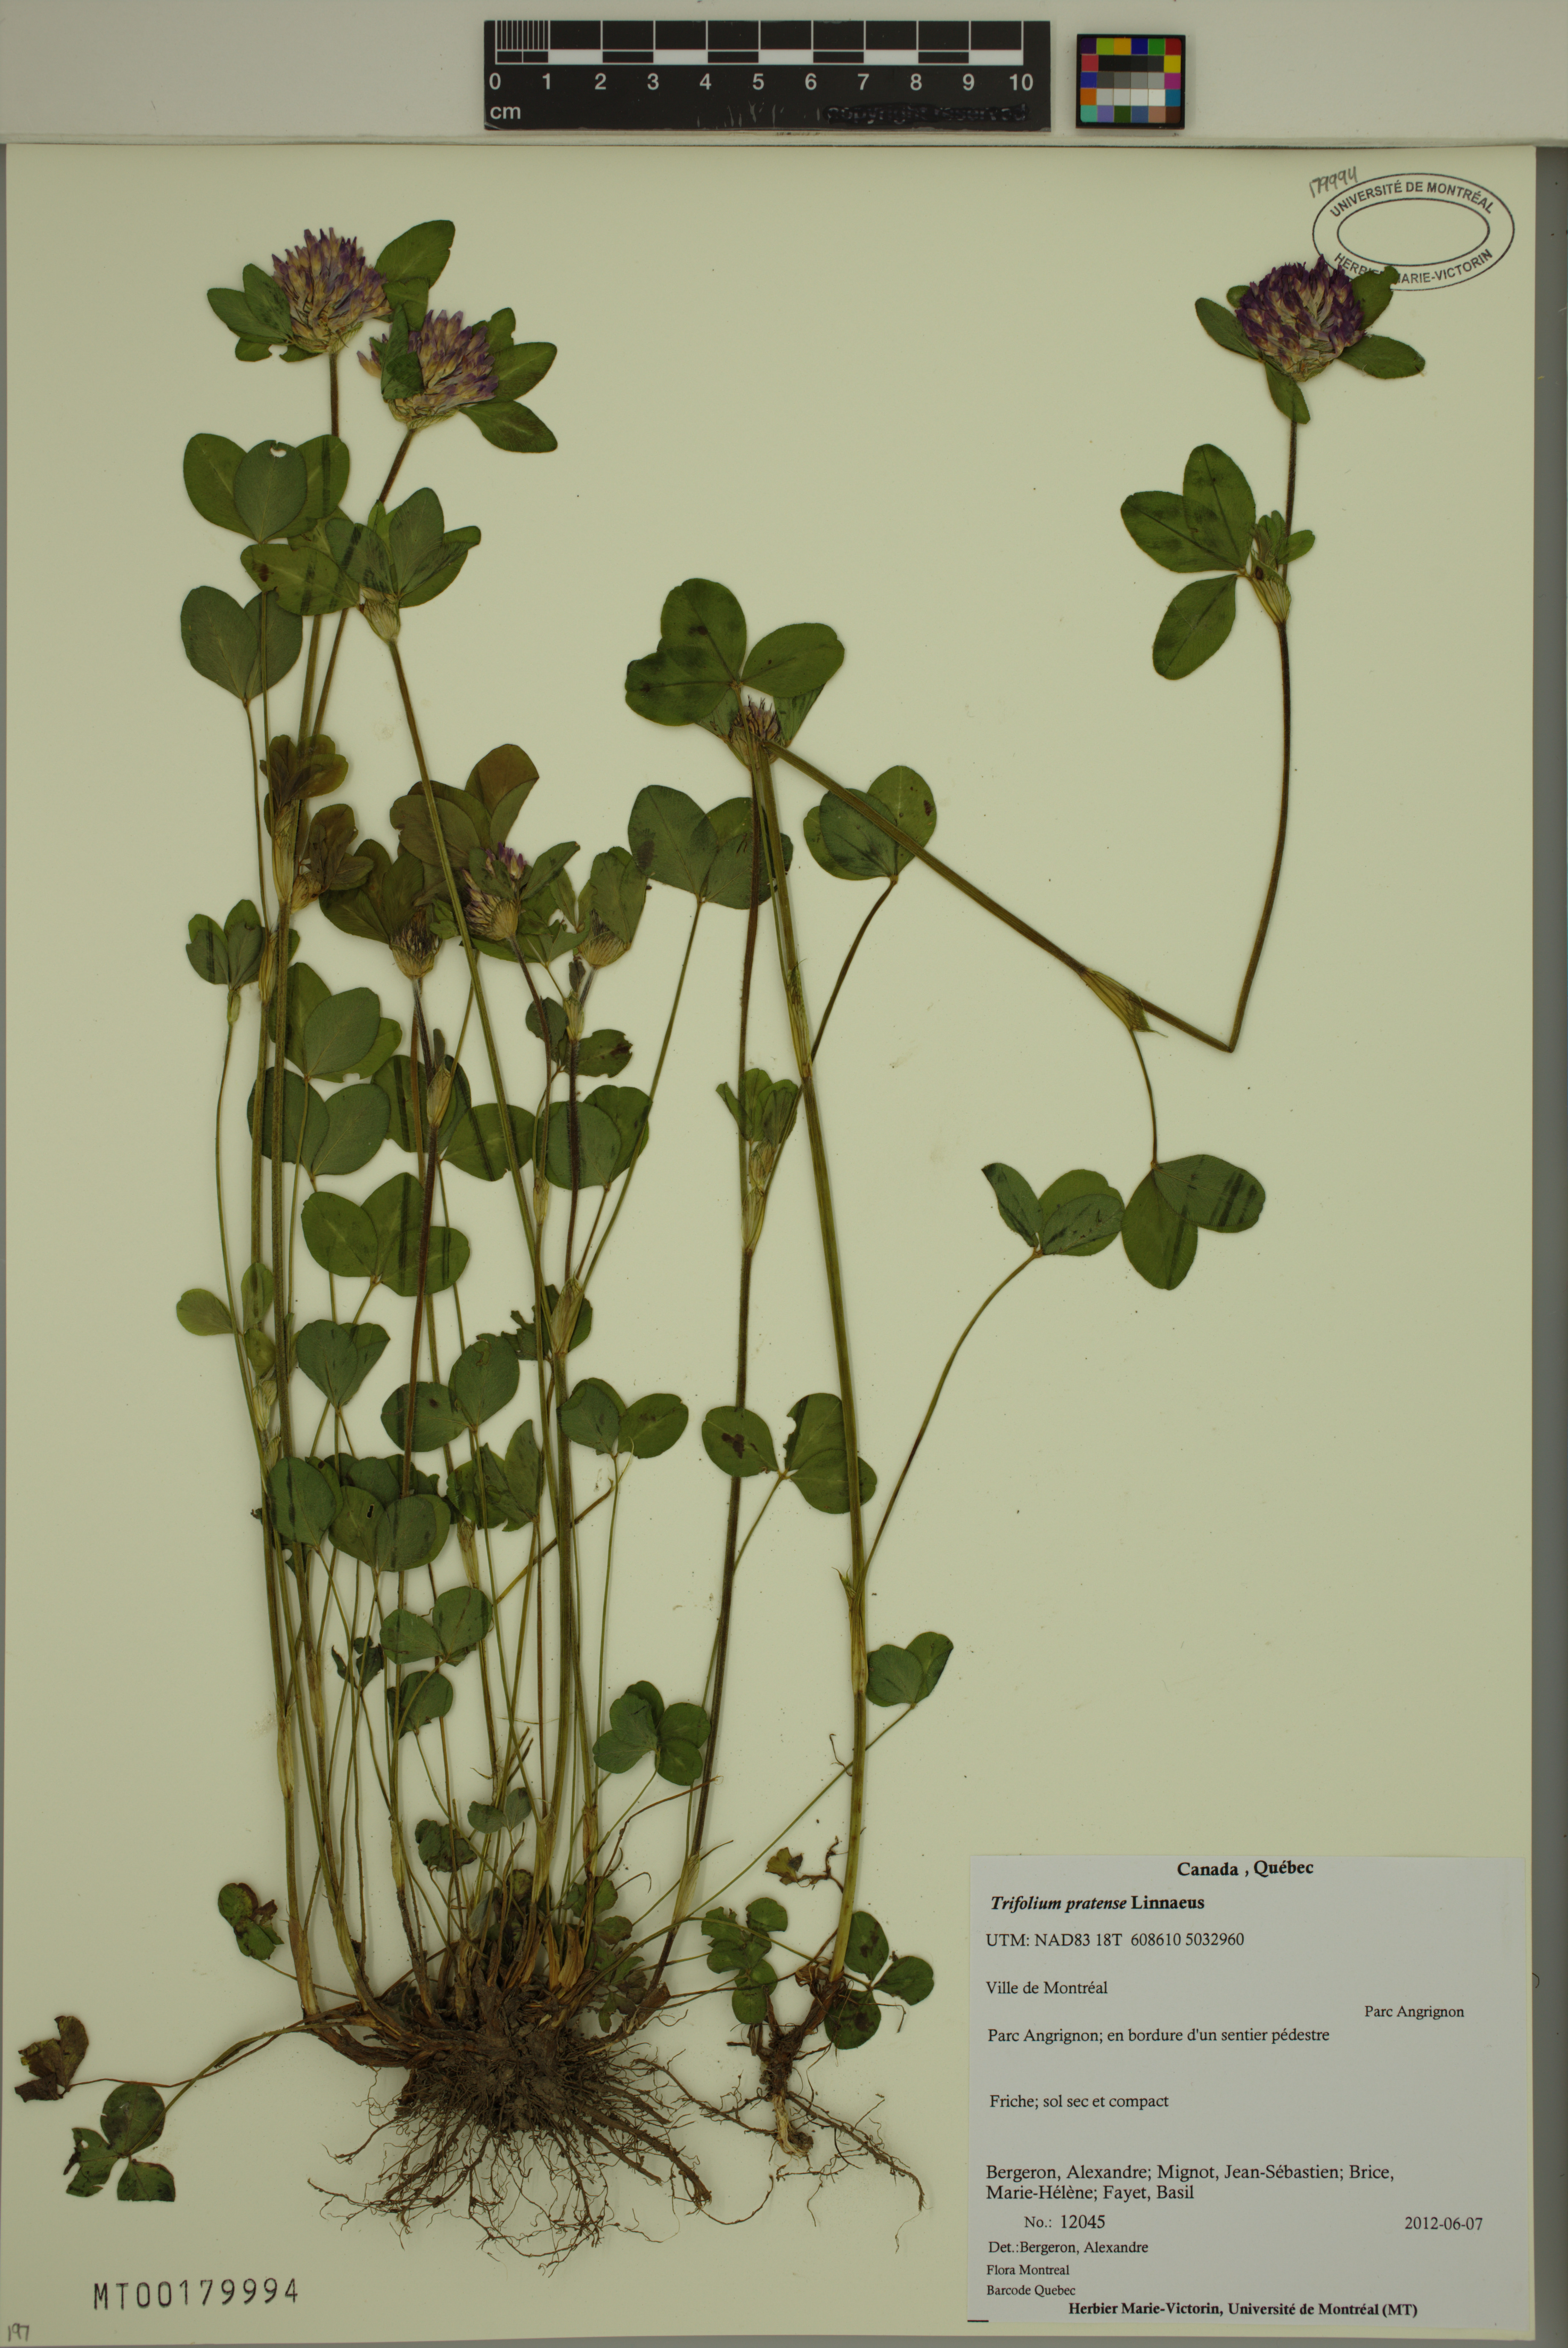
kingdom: Plantae
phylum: Tracheophyta
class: Magnoliopsida
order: Fabales
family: Fabaceae
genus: Trifolium
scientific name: Trifolium pratense
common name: Red clover
